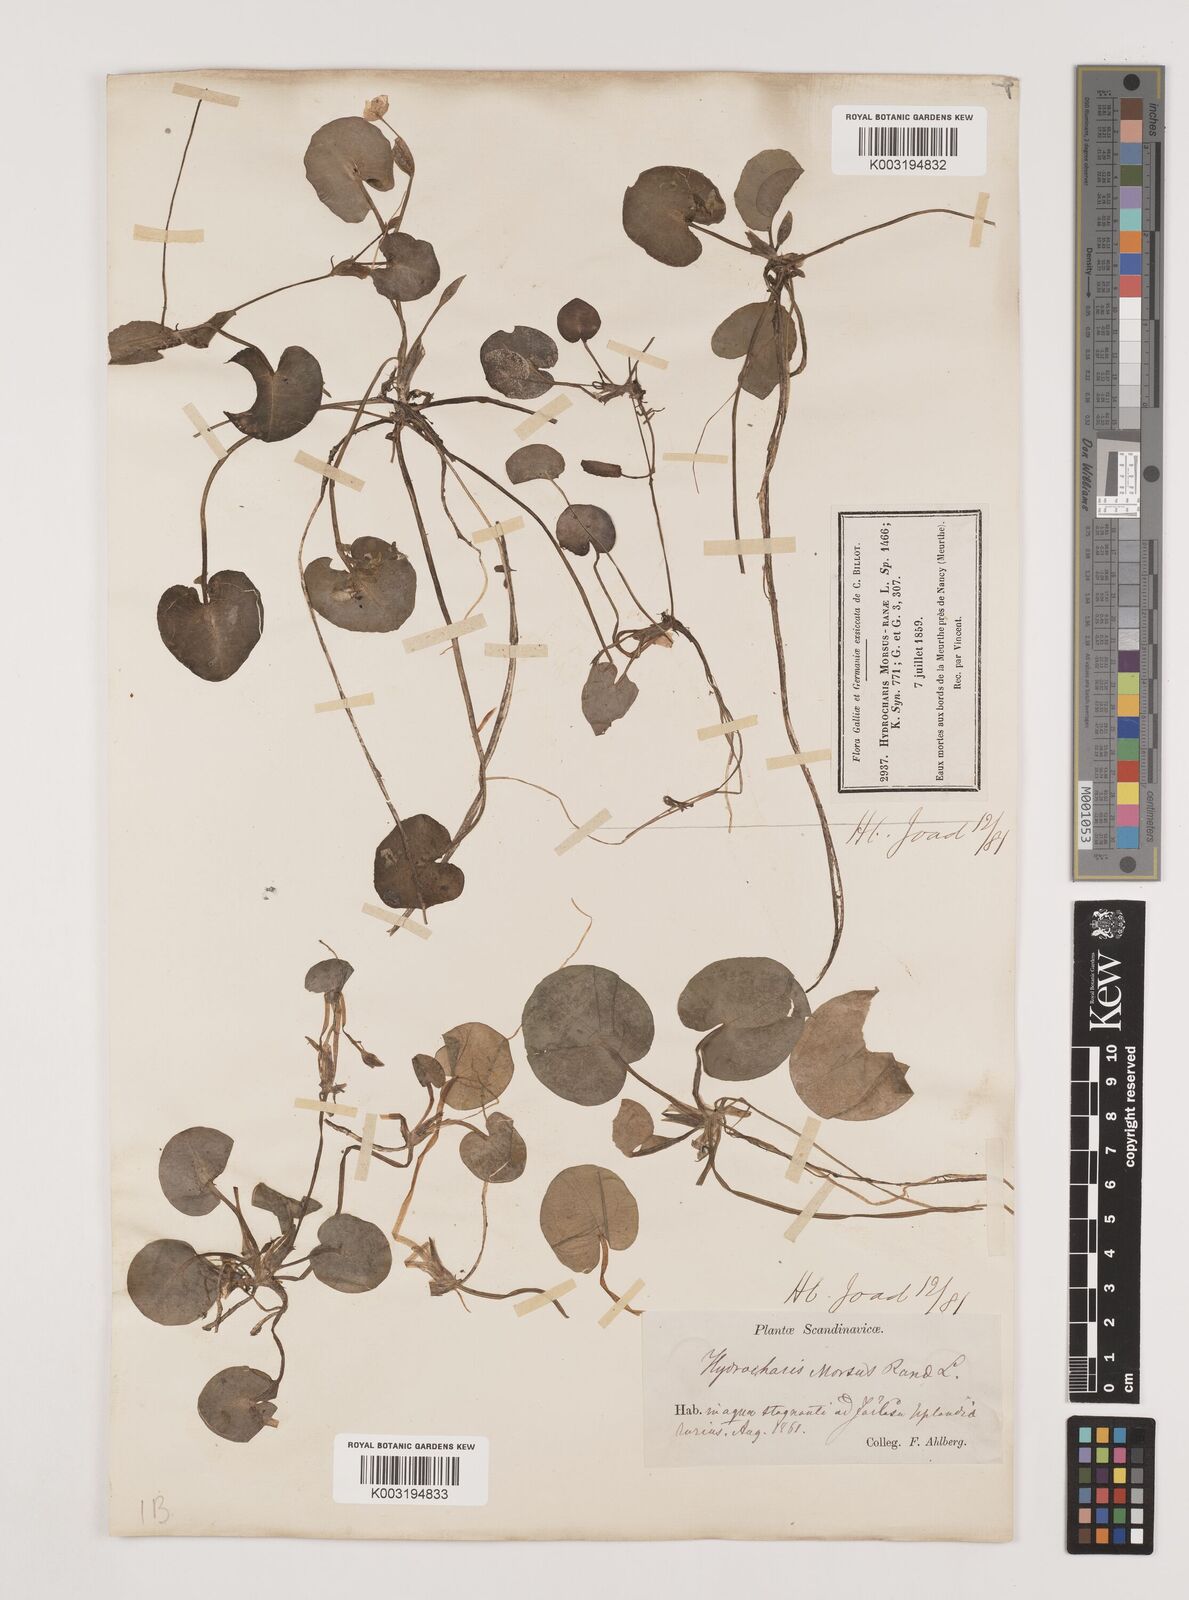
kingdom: Plantae
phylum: Tracheophyta
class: Liliopsida
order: Alismatales
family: Hydrocharitaceae
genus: Hydrocharis
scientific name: Hydrocharis morsus-ranae
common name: Frogbit
